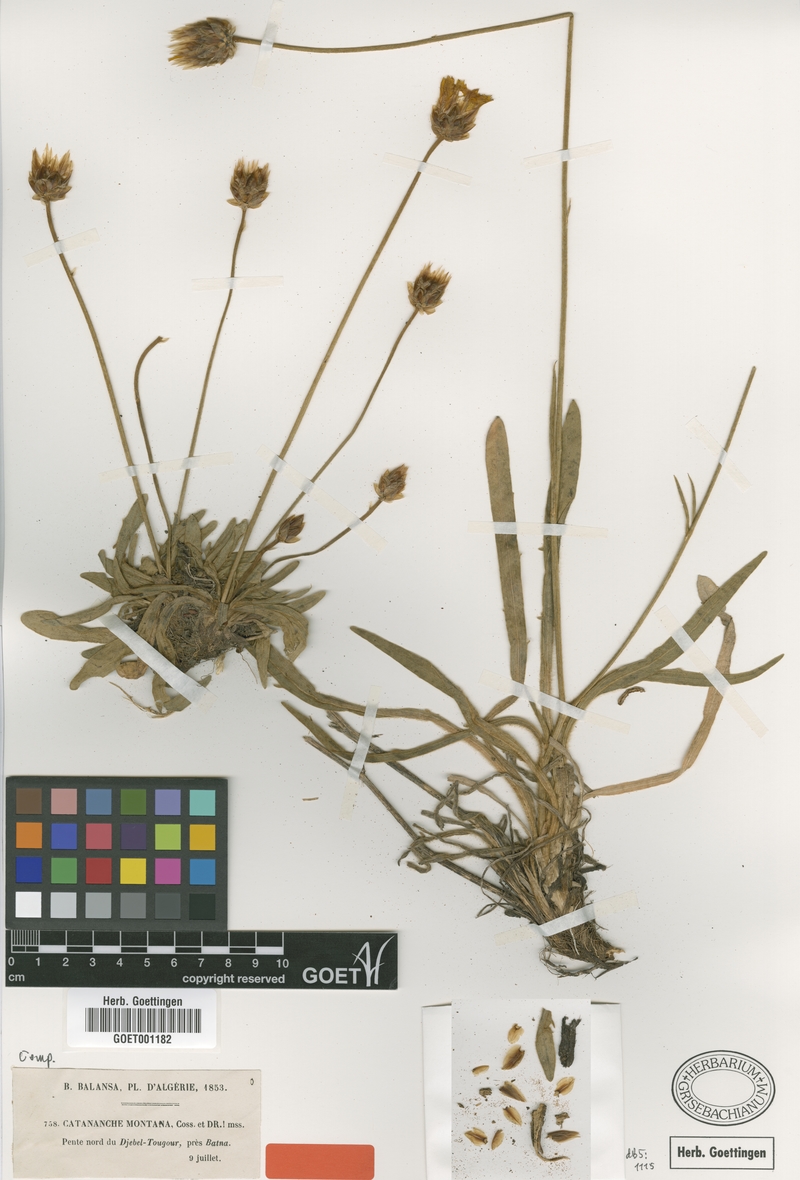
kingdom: Plantae
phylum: Tracheophyta
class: Magnoliopsida
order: Asterales
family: Asteraceae
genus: Catananche
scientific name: Catananche montana
